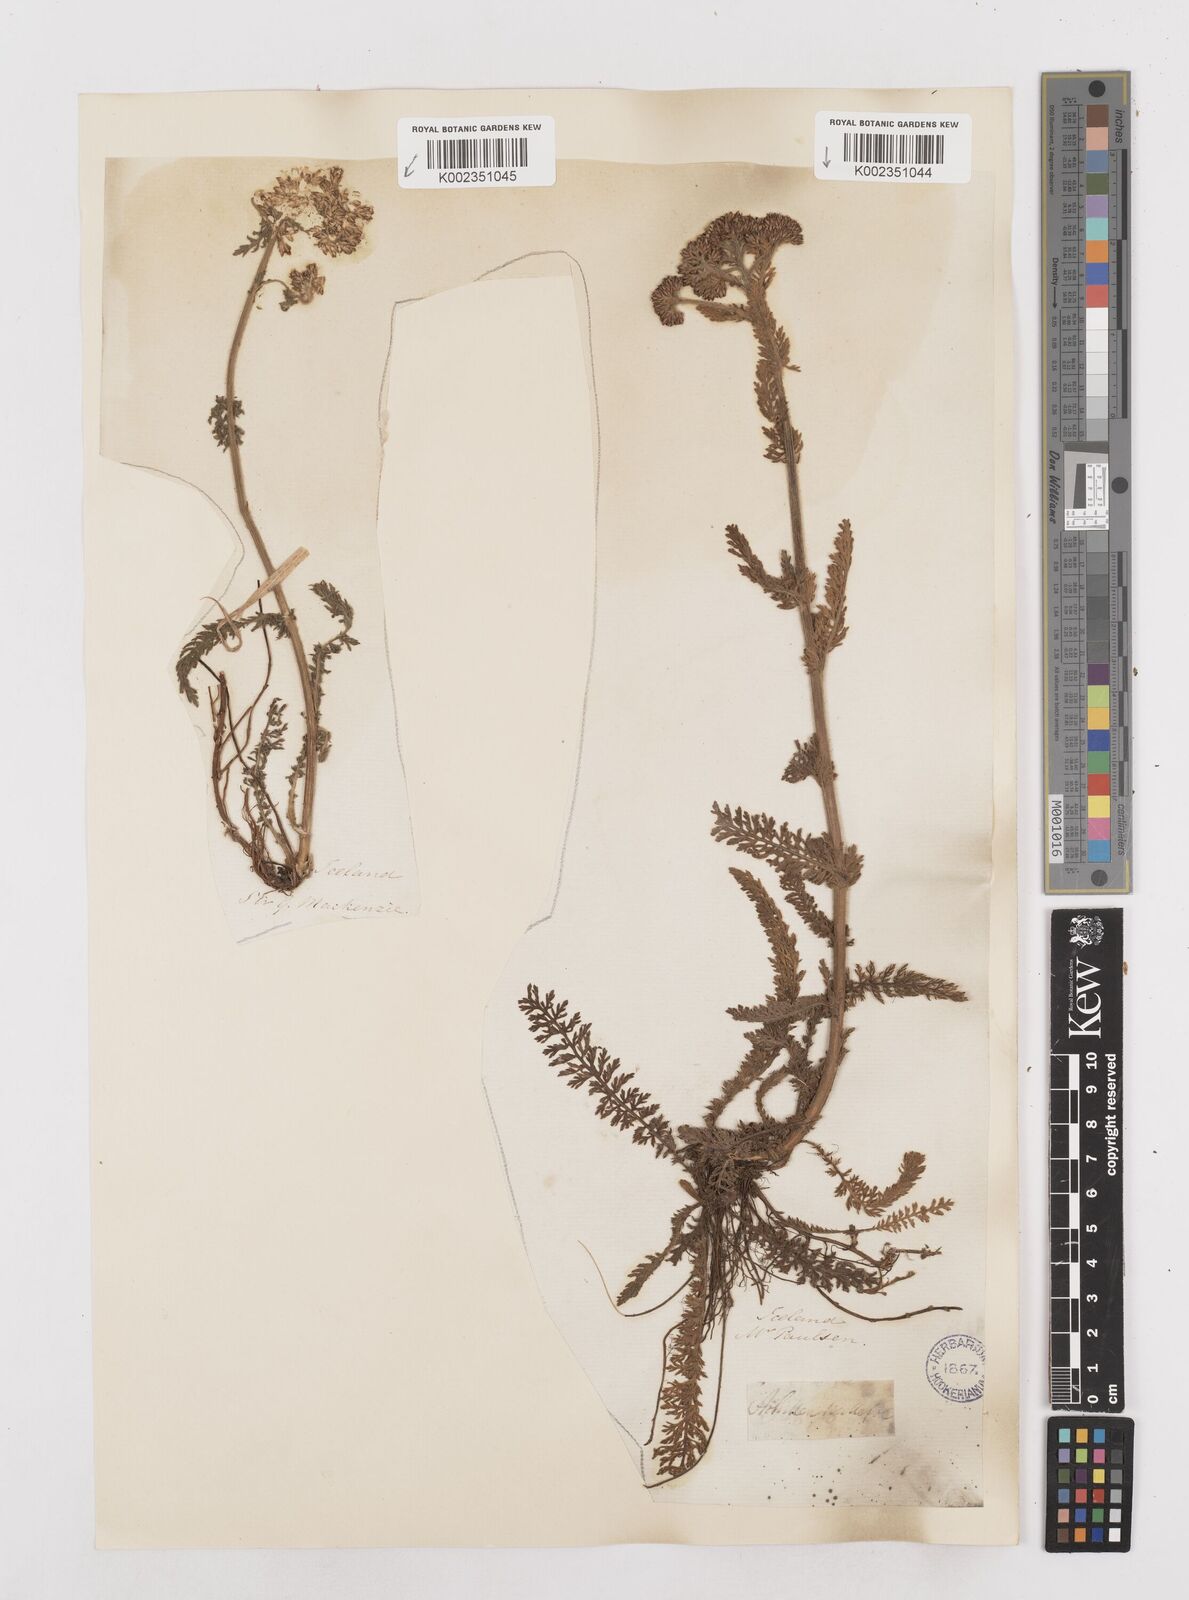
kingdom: Plantae
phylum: Tracheophyta
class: Magnoliopsida
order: Asterales
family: Asteraceae
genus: Achillea
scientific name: Achillea millefolium
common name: Yarrow
